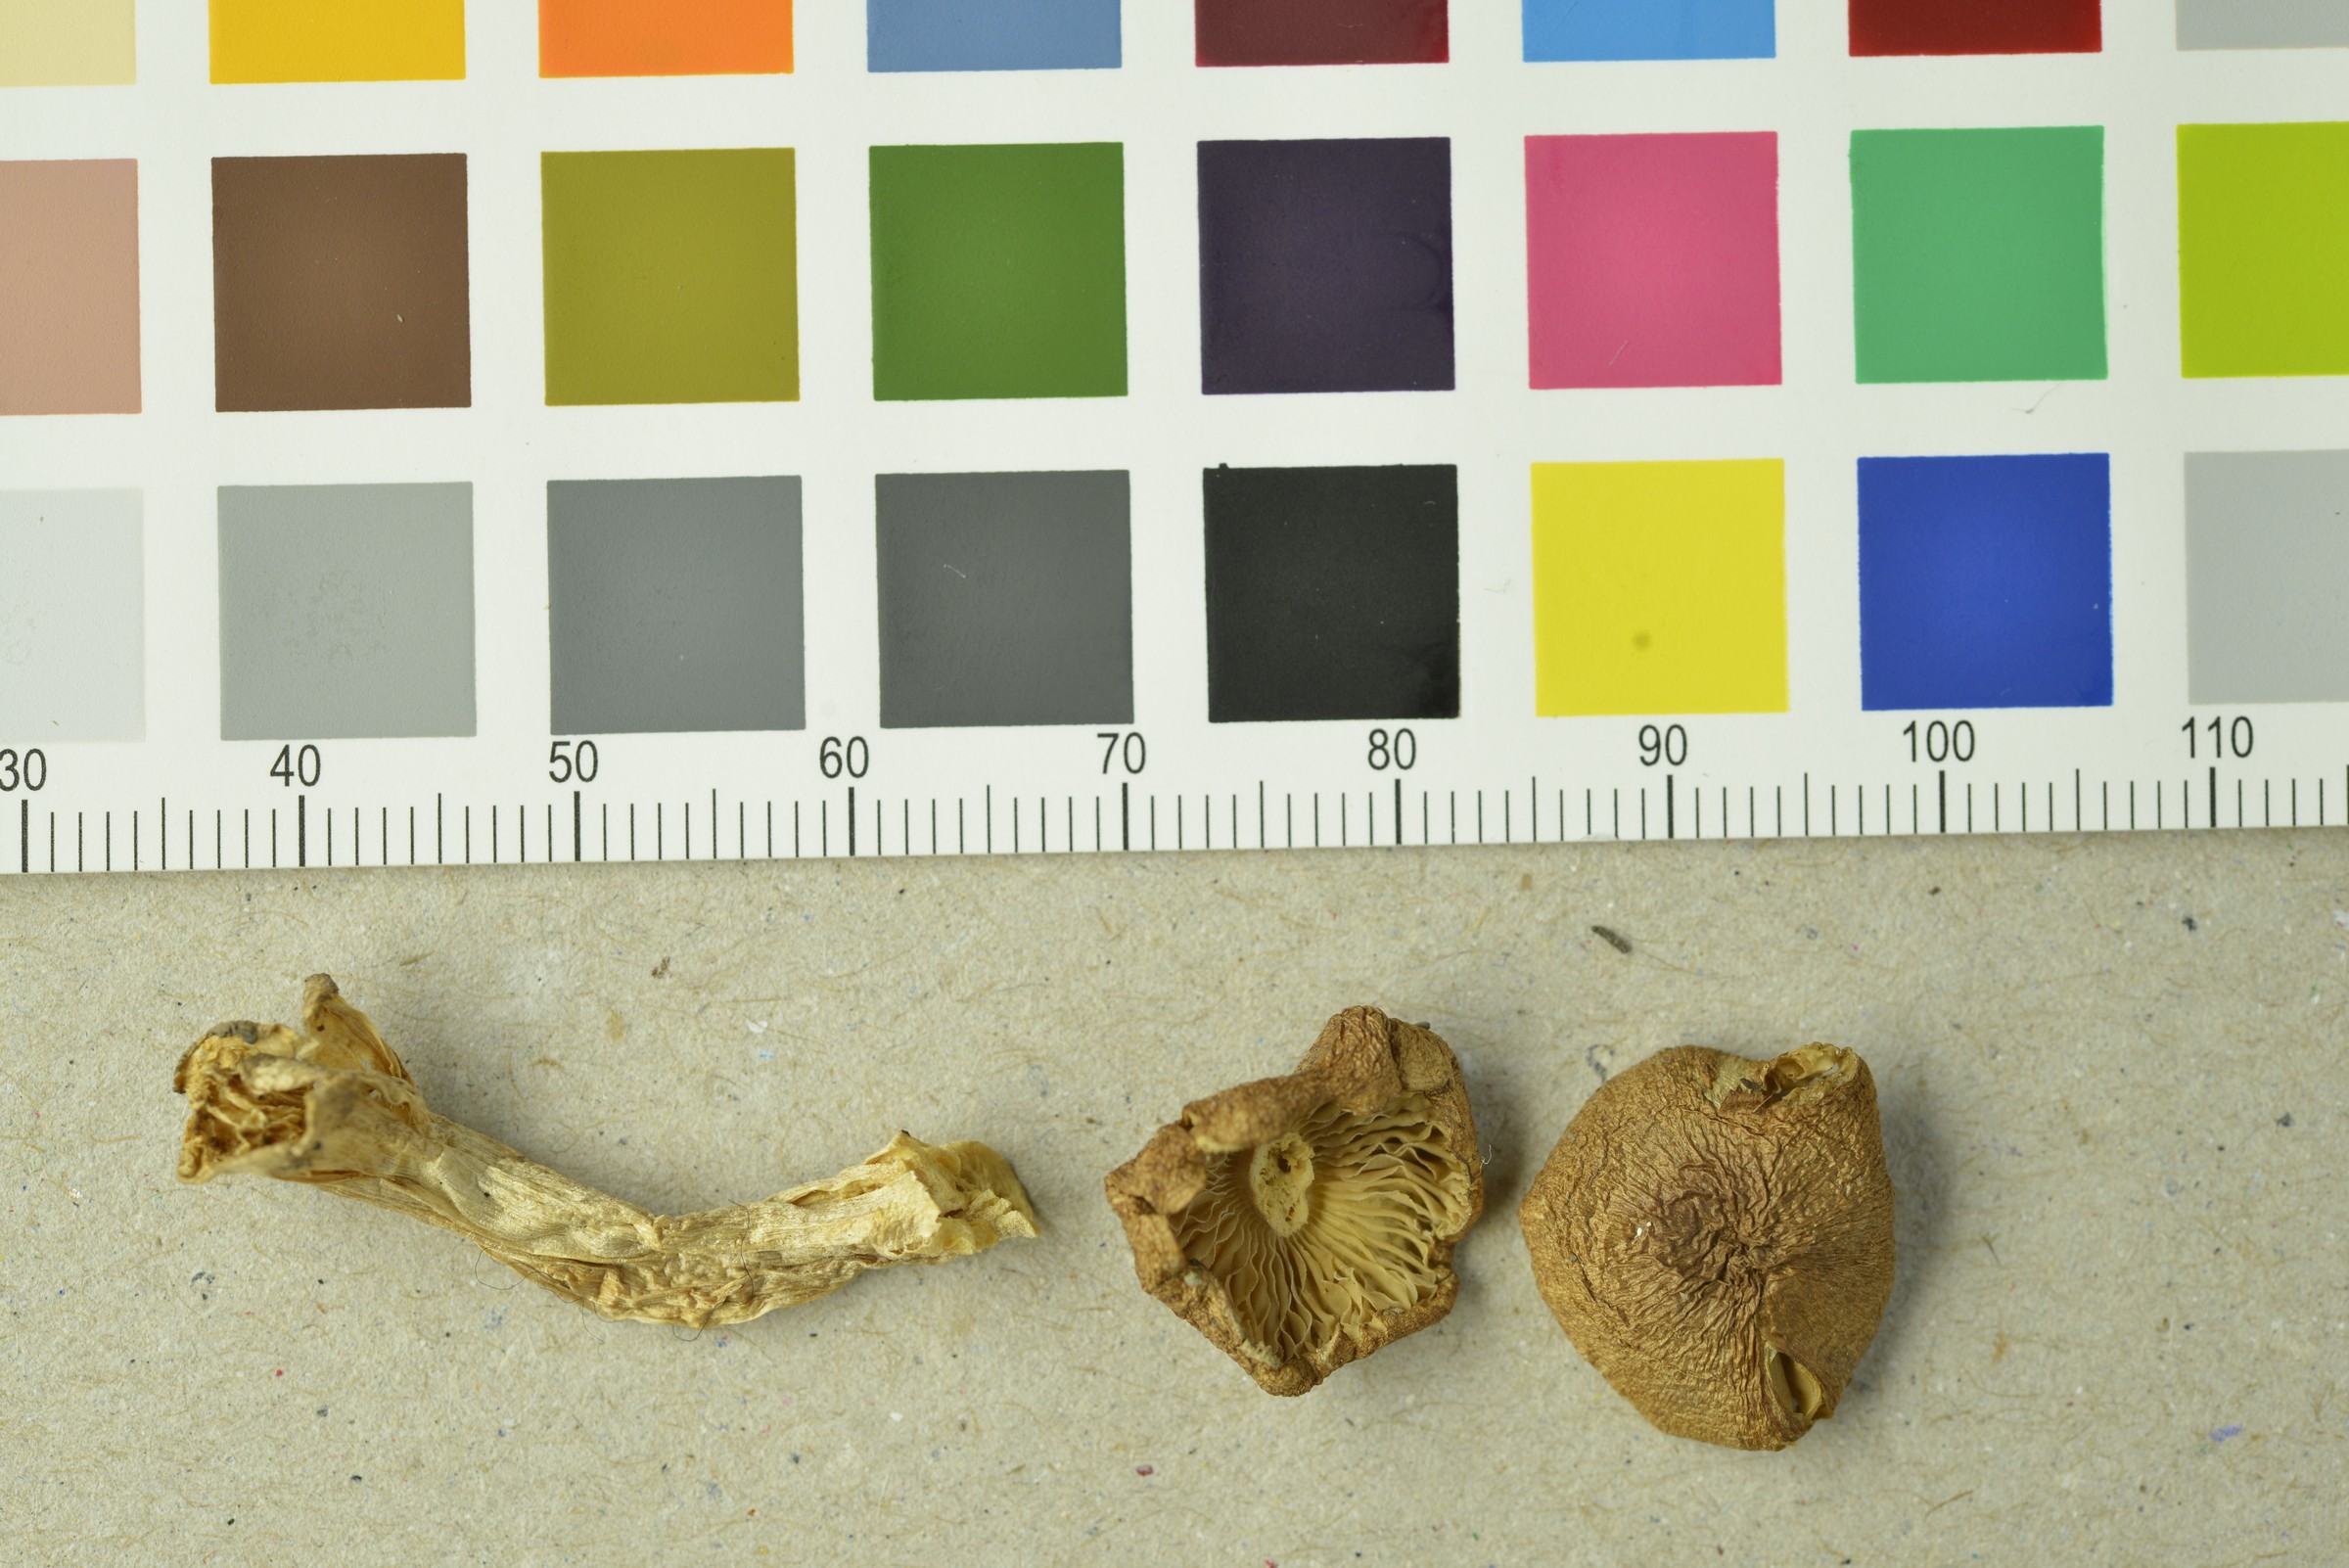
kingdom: Fungi
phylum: Basidiomycota
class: Agaricomycetes
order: Agaricales
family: Inocybaceae
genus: Inocybe
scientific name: Inocybe pelargonium
